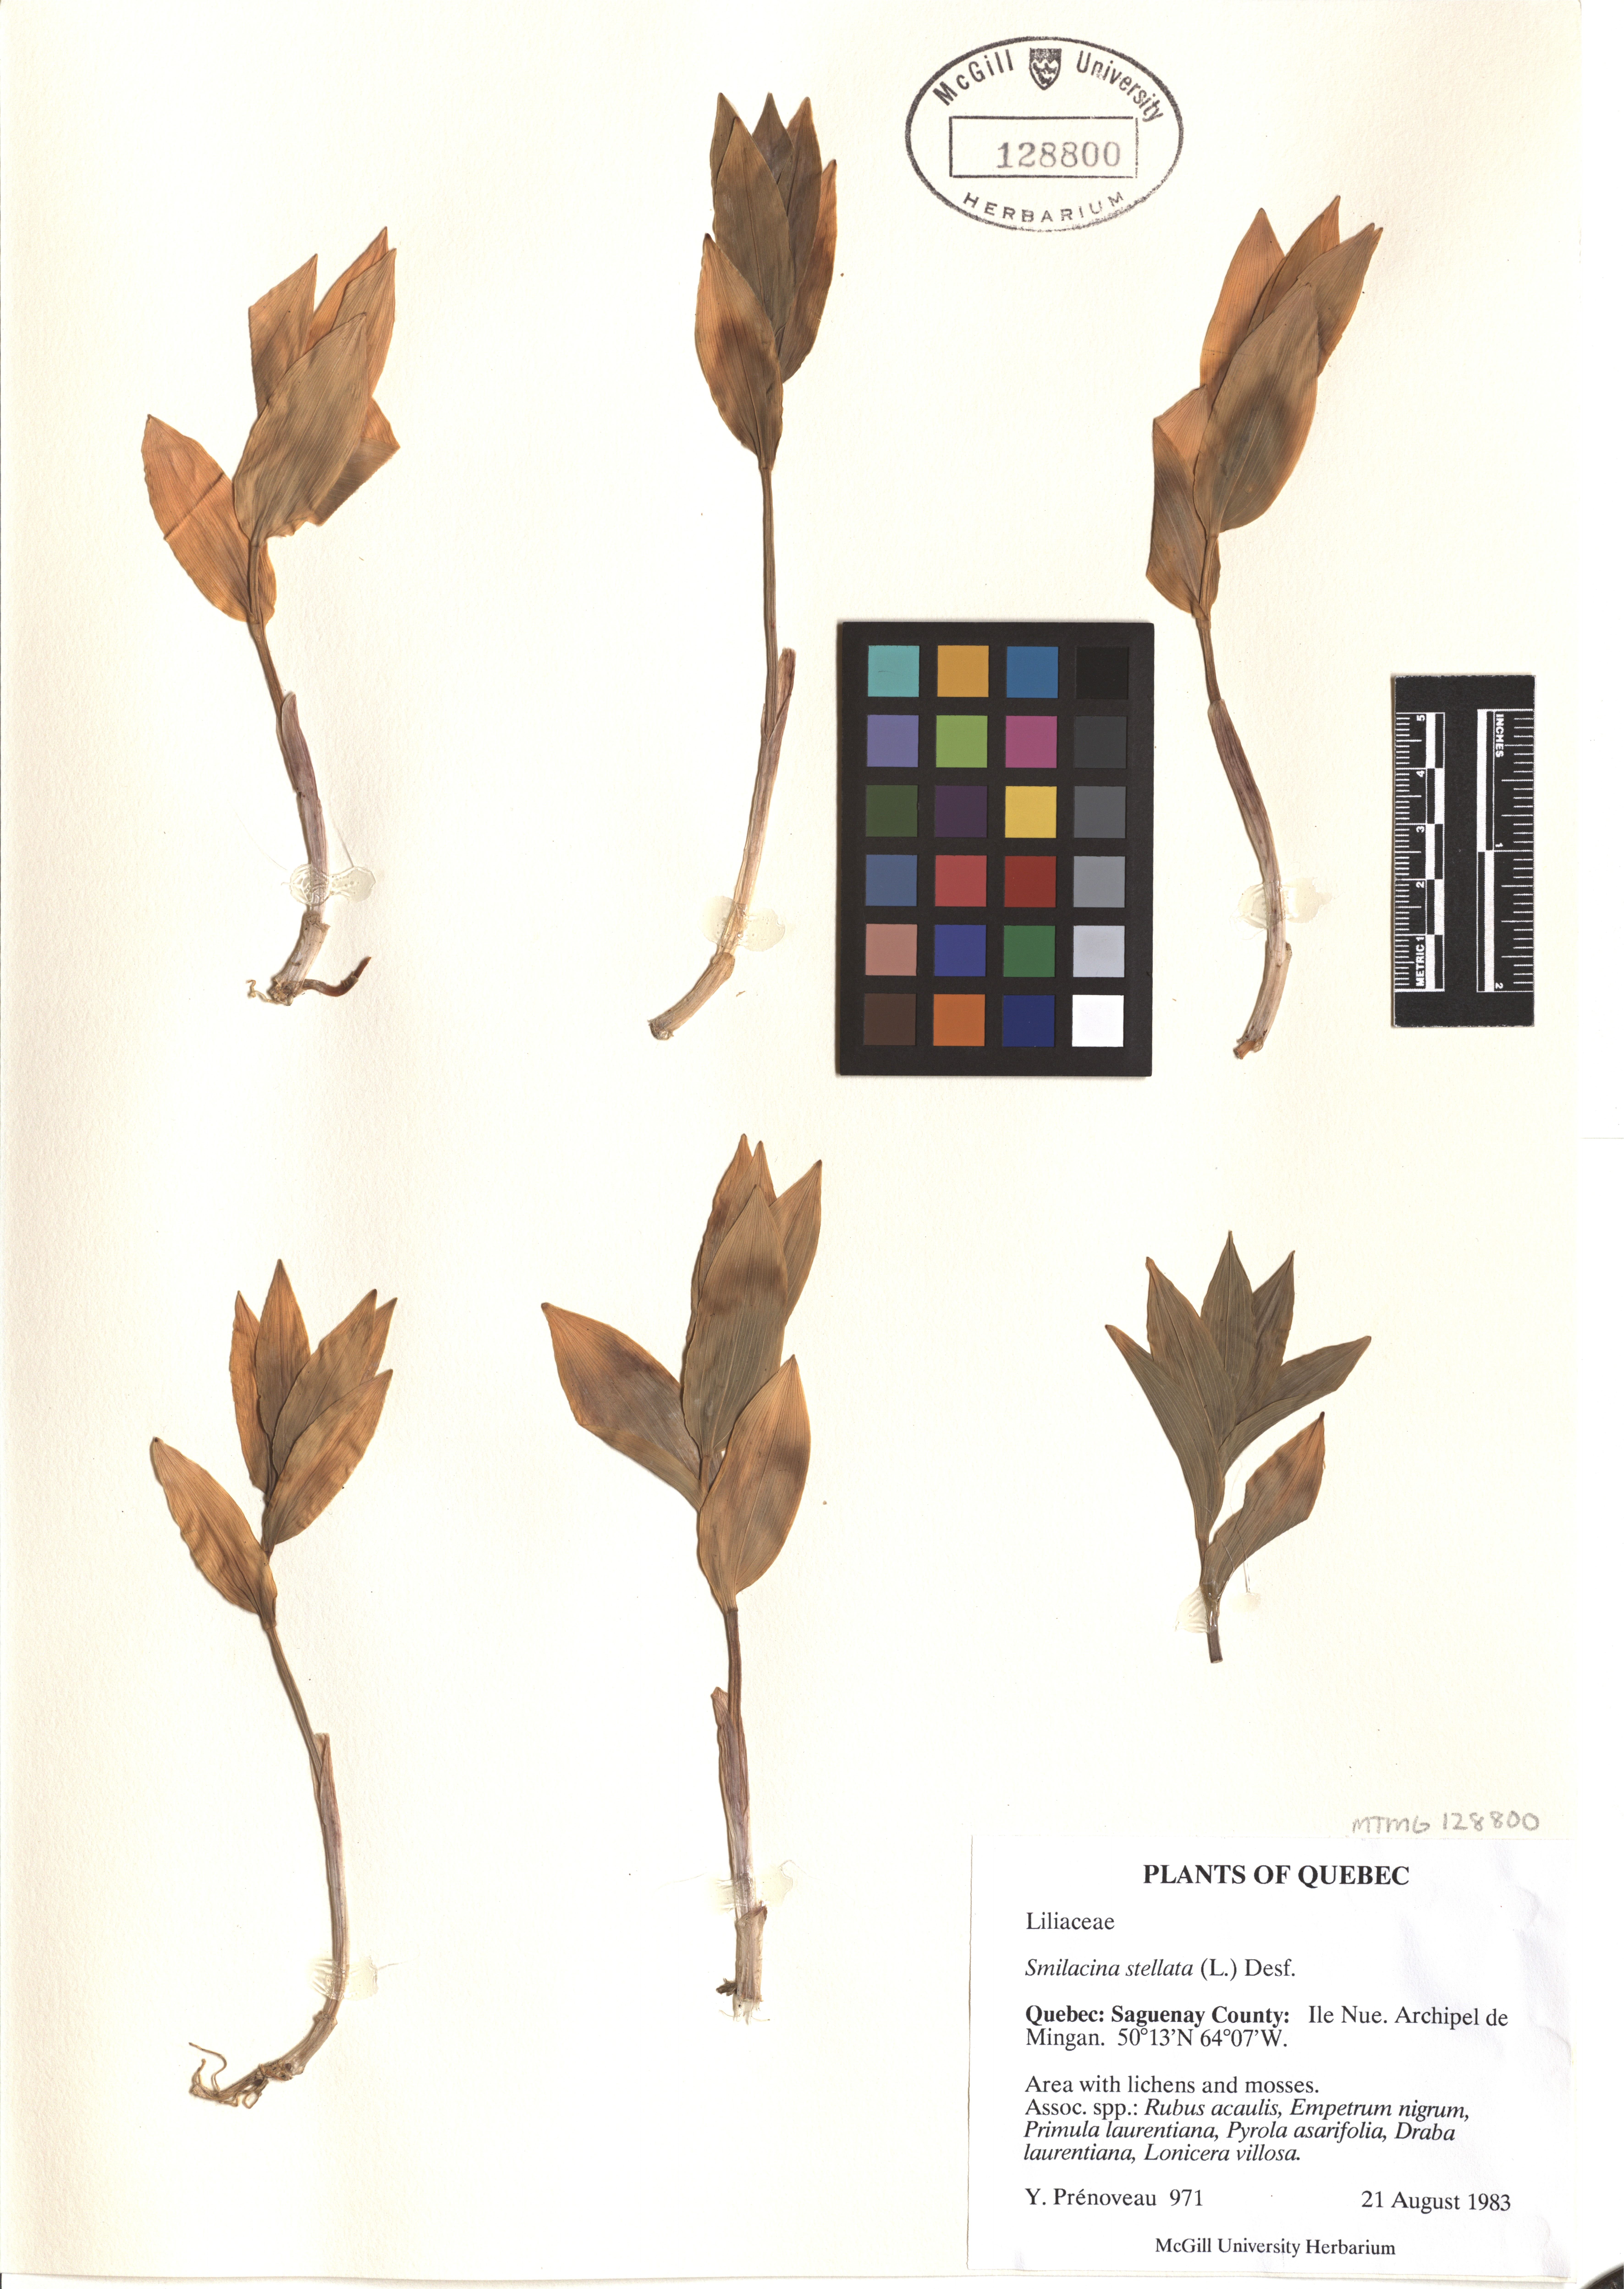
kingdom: Plantae
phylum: Tracheophyta
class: Liliopsida
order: Asparagales
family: Asparagaceae
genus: Maianthemum
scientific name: Maianthemum stellatum
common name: Little false solomon's seal
